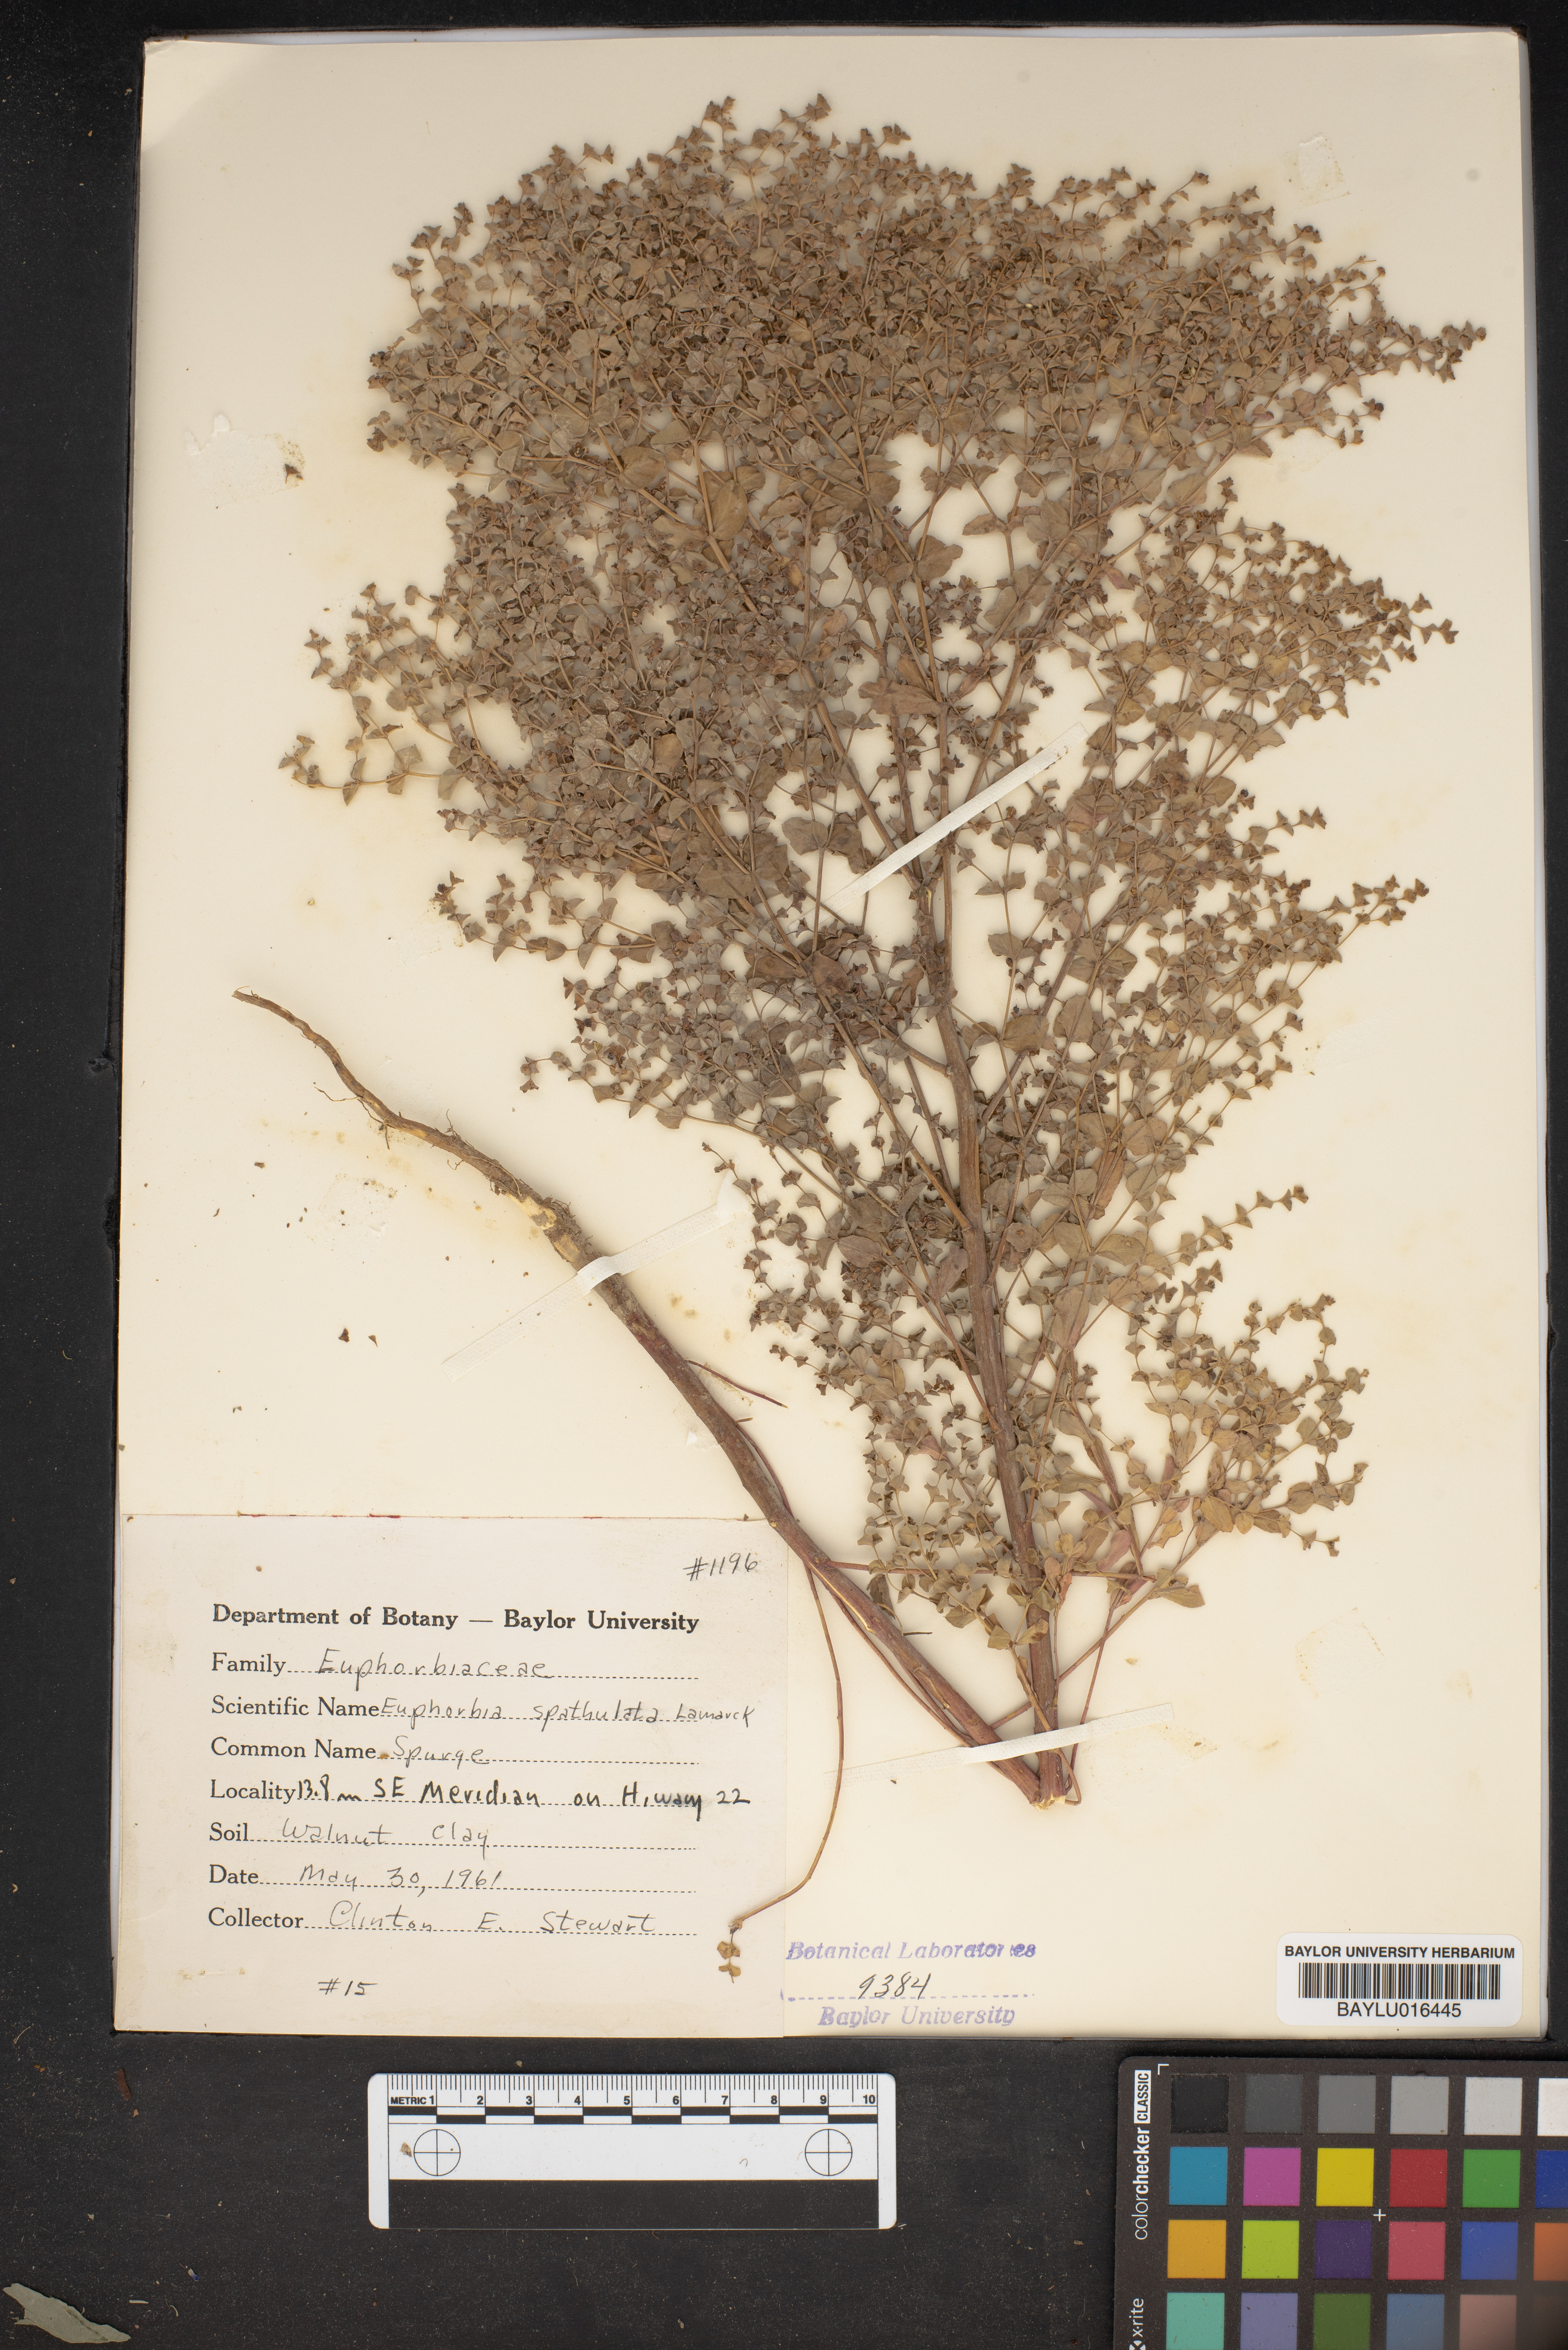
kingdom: Plantae
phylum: Tracheophyta
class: Magnoliopsida
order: Malpighiales
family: Euphorbiaceae
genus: Euphorbia
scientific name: Euphorbia spathulata
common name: Blunt spurge
